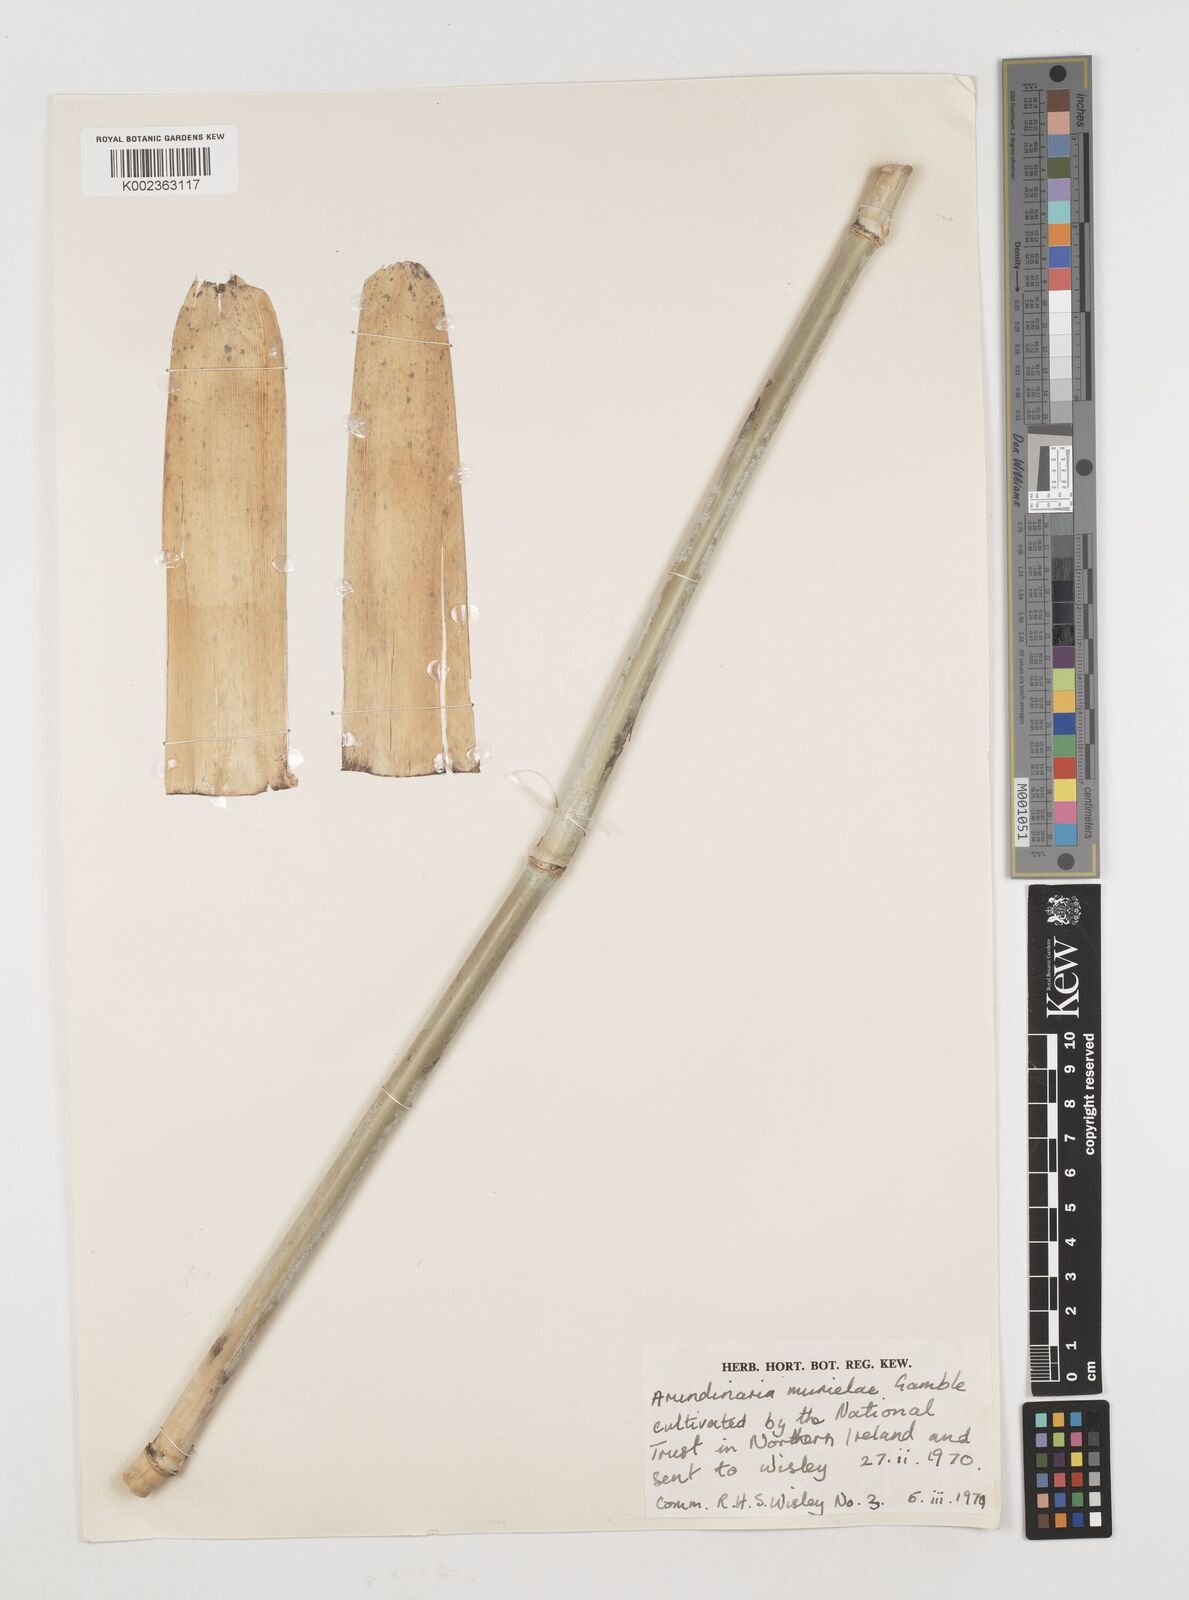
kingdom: Plantae
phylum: Tracheophyta
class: Liliopsida
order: Poales
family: Poaceae
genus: Fargesia
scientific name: Fargesia murielae
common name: Umbrella bamboo
